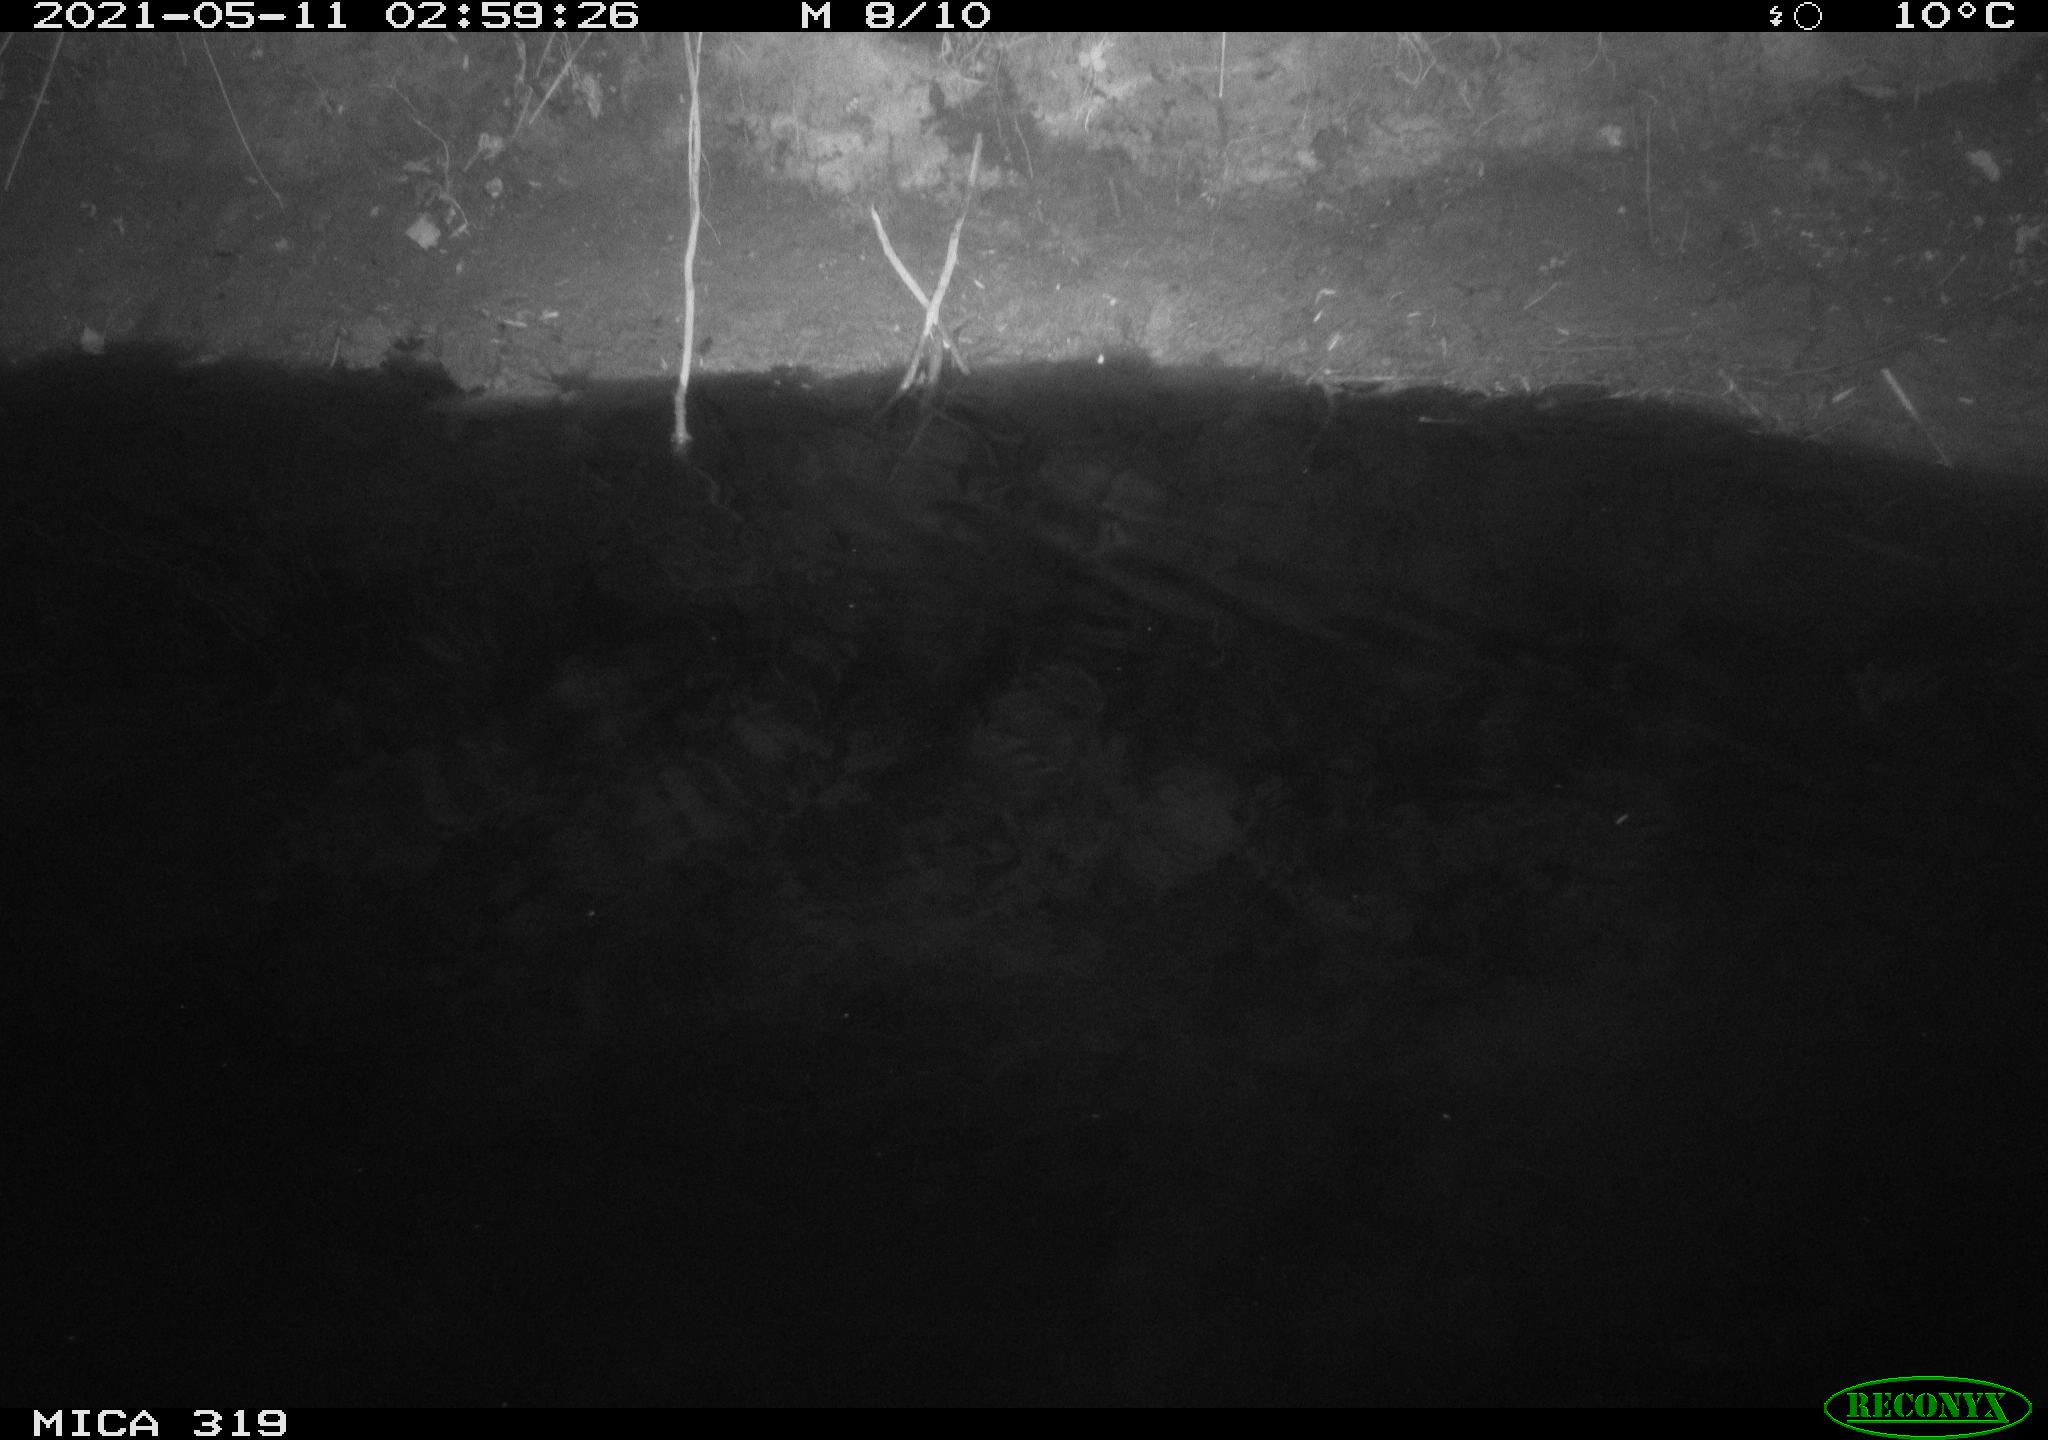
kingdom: Animalia
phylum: Chordata
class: Aves
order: Anseriformes
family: Anatidae
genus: Anas
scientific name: Anas platyrhynchos
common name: Mallard
